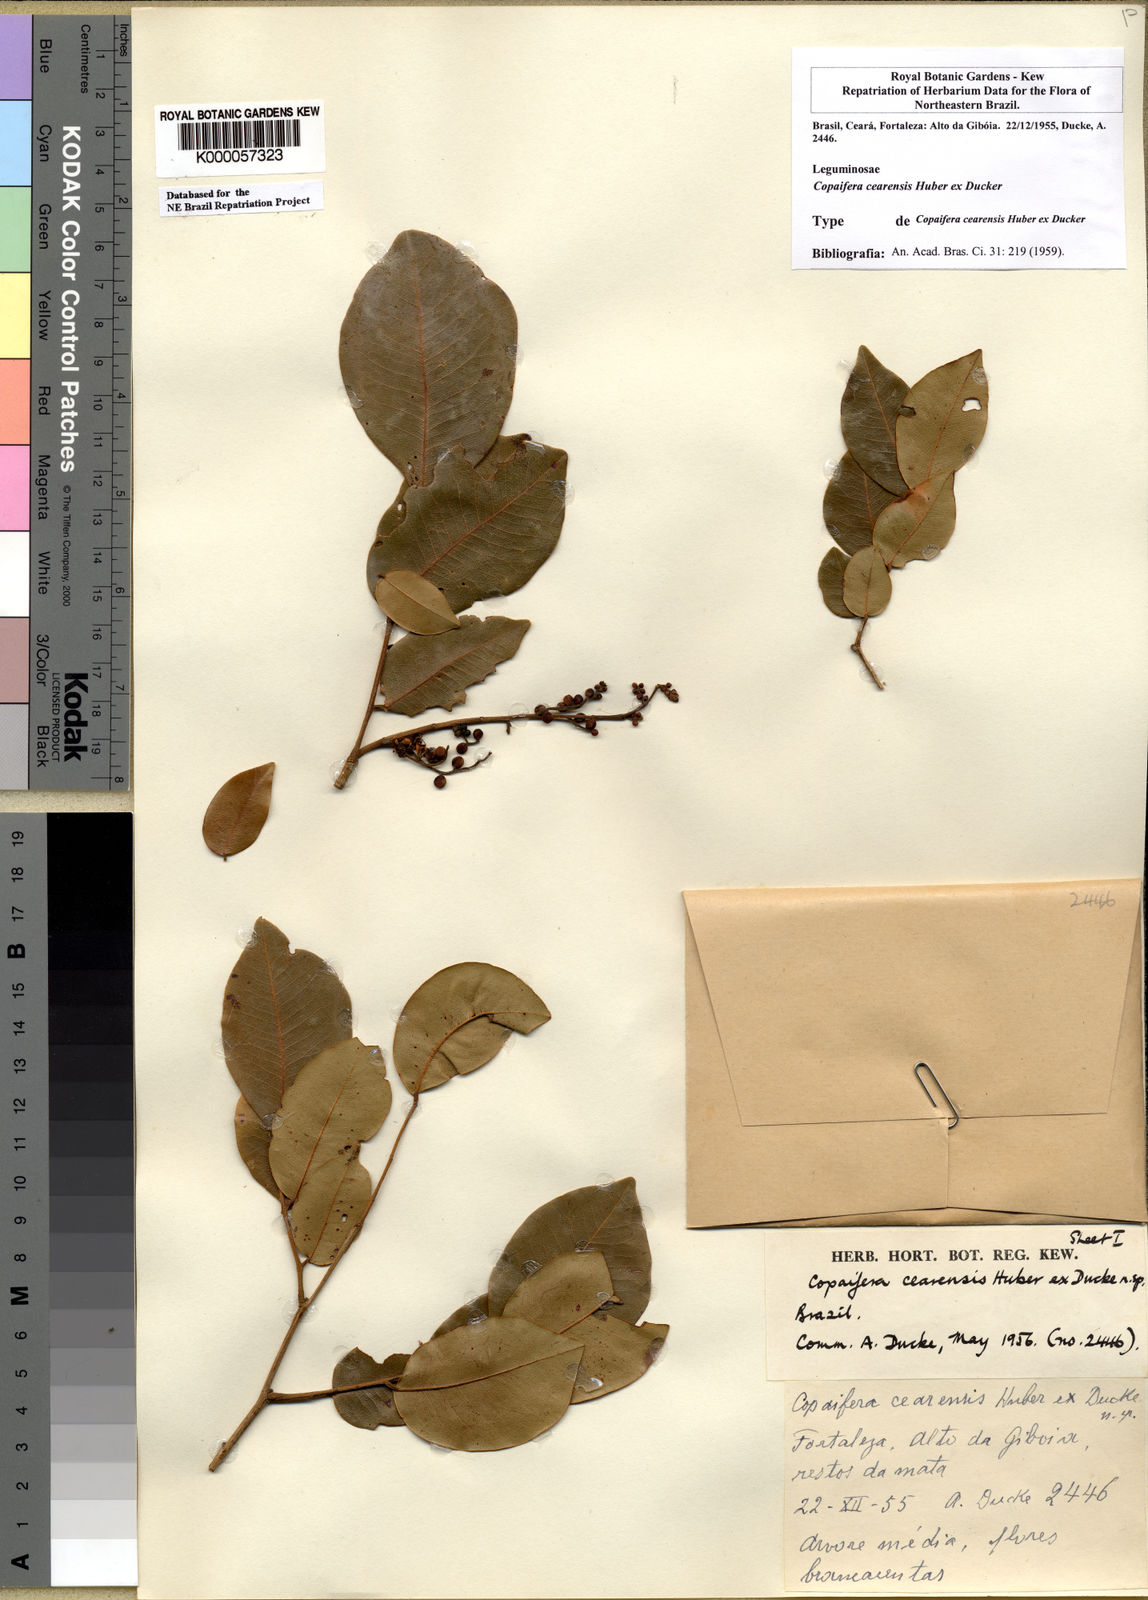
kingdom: Plantae
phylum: Tracheophyta
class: Magnoliopsida
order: Fabales
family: Fabaceae
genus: Copaifera
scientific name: Copaifera duckei
